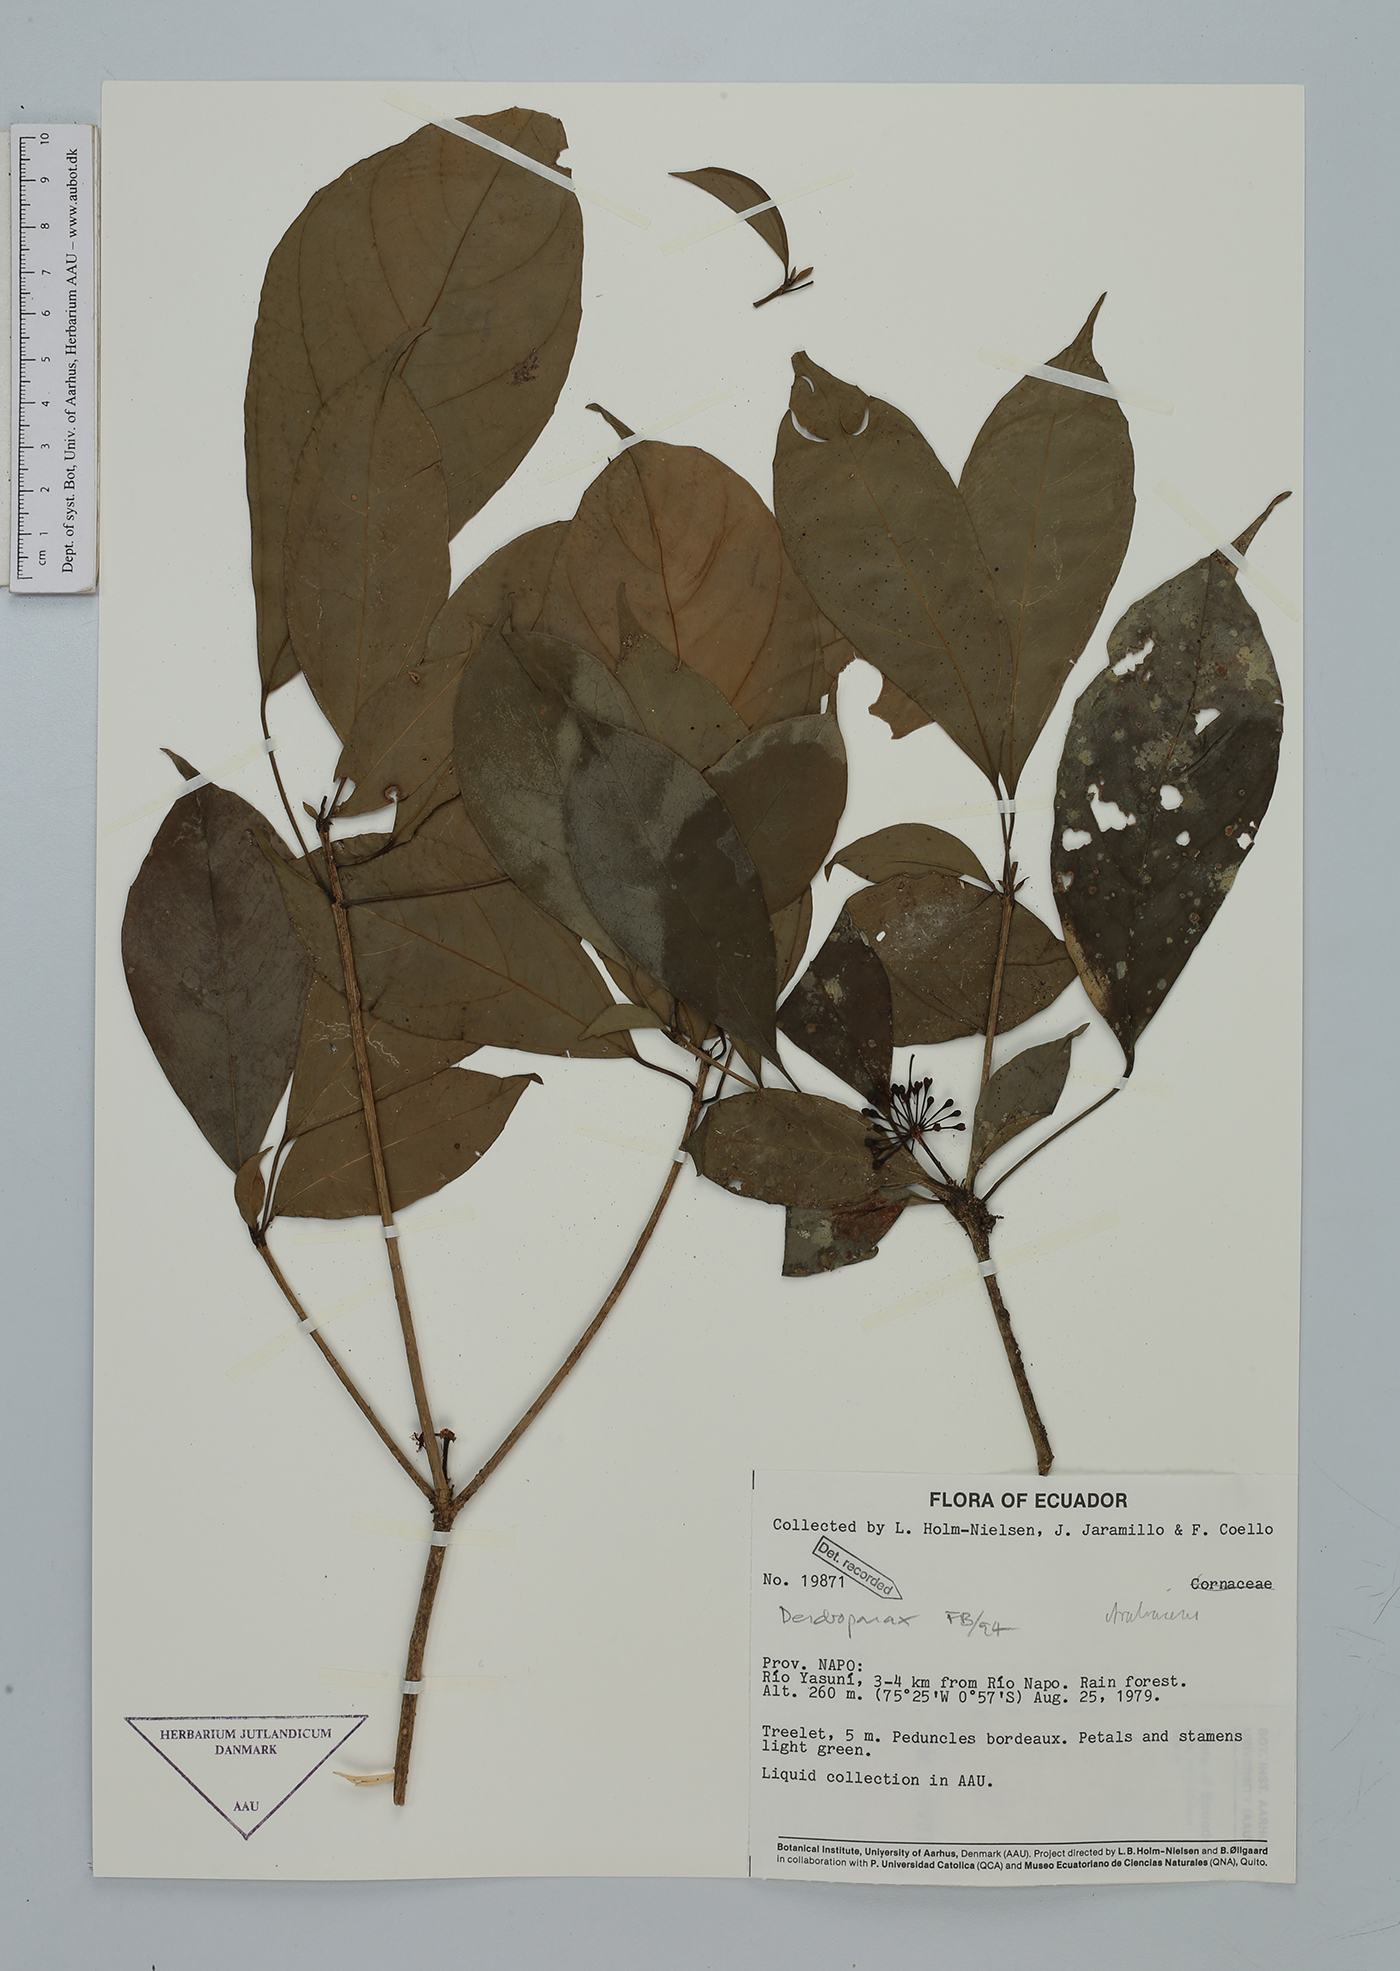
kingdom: Plantae
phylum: Tracheophyta
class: Magnoliopsida
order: Apiales
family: Araliaceae
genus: Dendropanax
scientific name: Dendropanax
